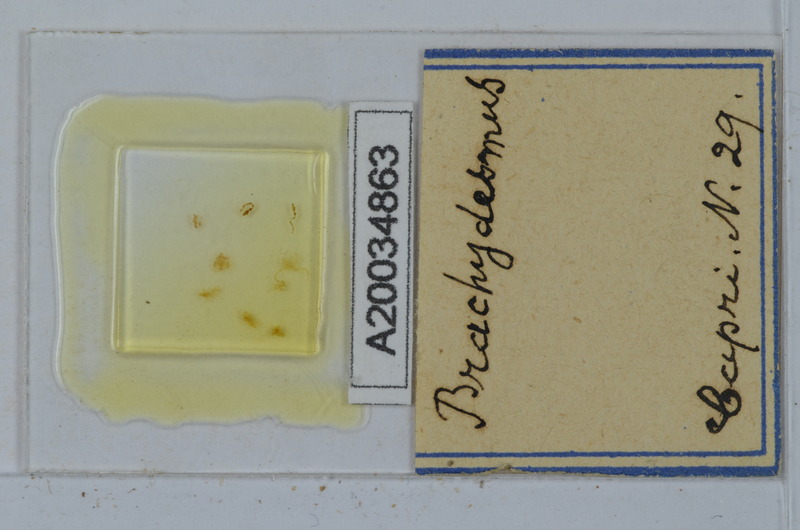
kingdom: Animalia
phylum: Arthropoda
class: Diplopoda
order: Polydesmida
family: Polydesmidae
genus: Brachydesmus
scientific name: Brachydesmus
